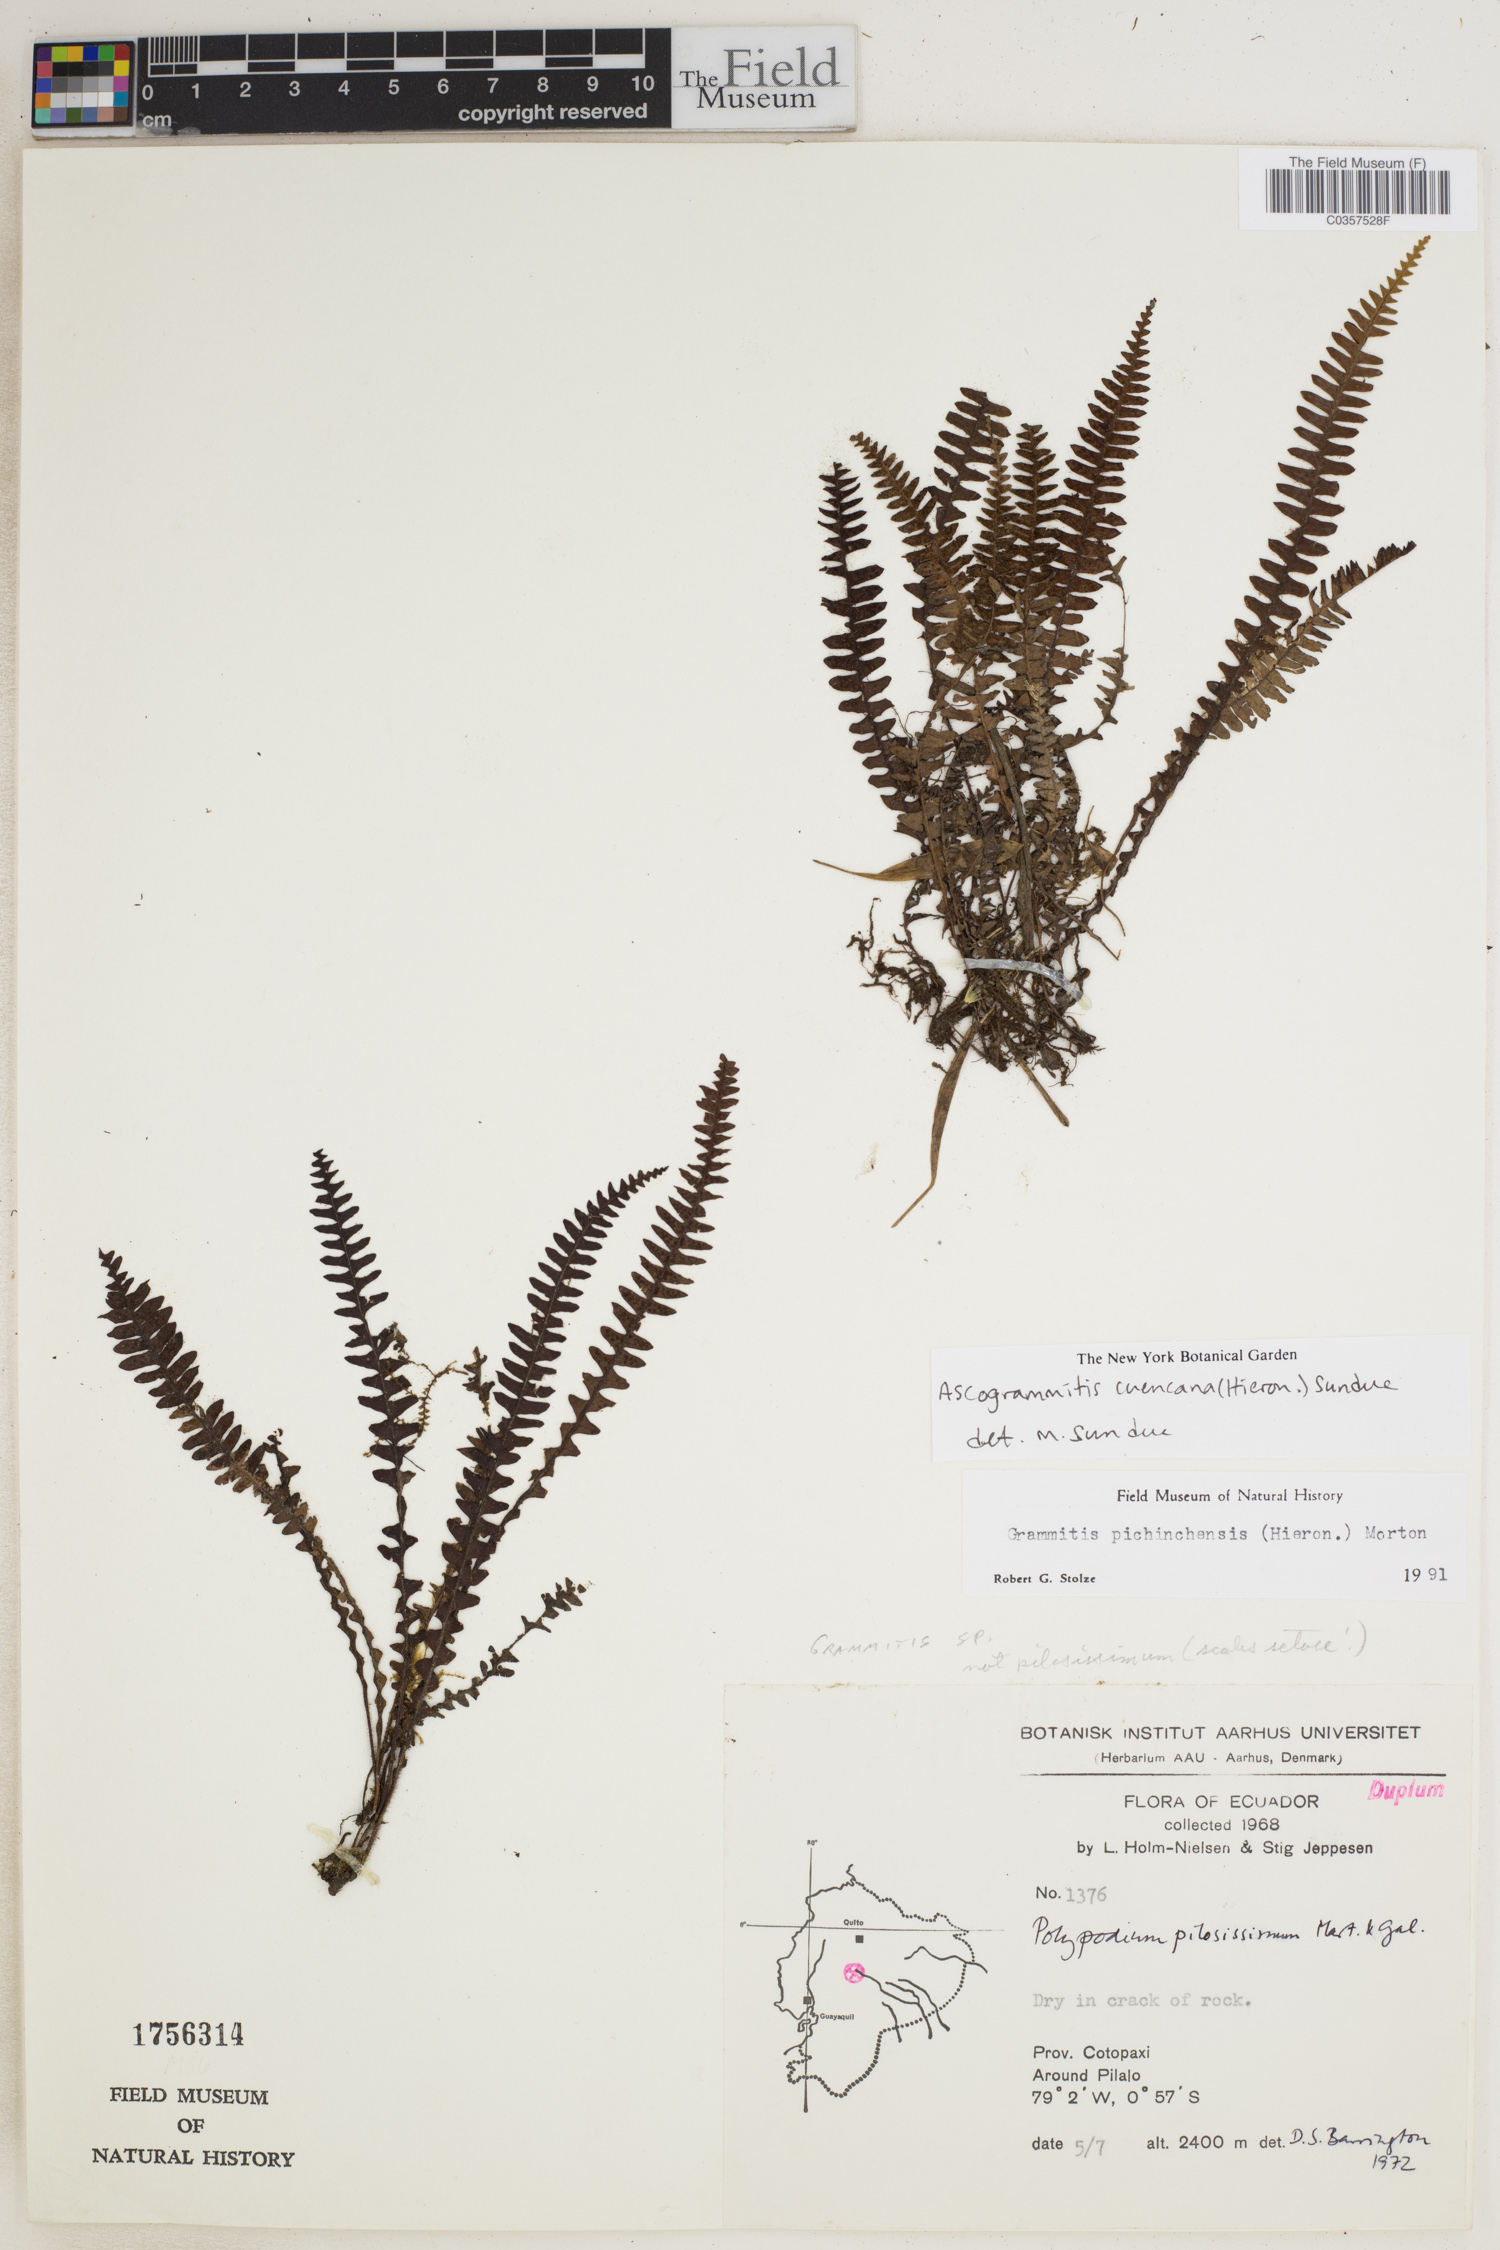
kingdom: Plantae
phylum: Tracheophyta
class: Polypodiopsida
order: Polypodiales
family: Polypodiaceae
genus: Ascogrammitis
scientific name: Ascogrammitis cuencana
